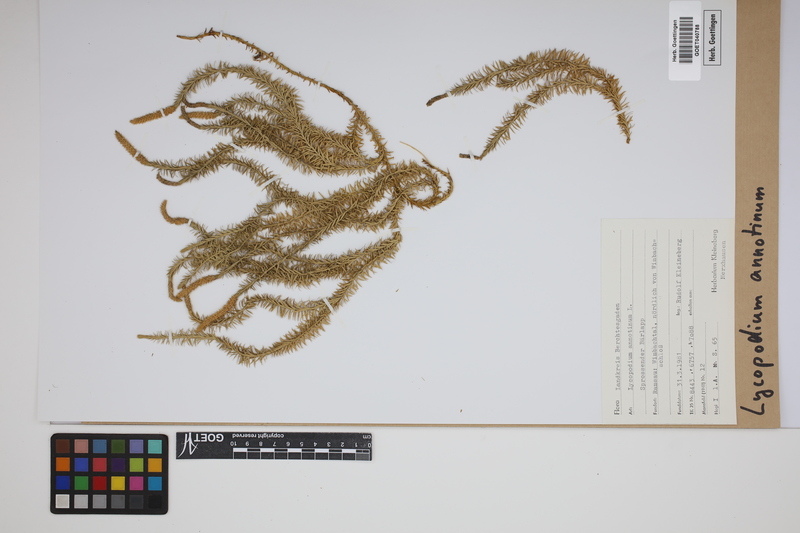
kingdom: Plantae
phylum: Tracheophyta
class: Lycopodiopsida
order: Lycopodiales
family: Lycopodiaceae
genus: Spinulum
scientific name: Spinulum annotinum
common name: Interrupted club-moss
